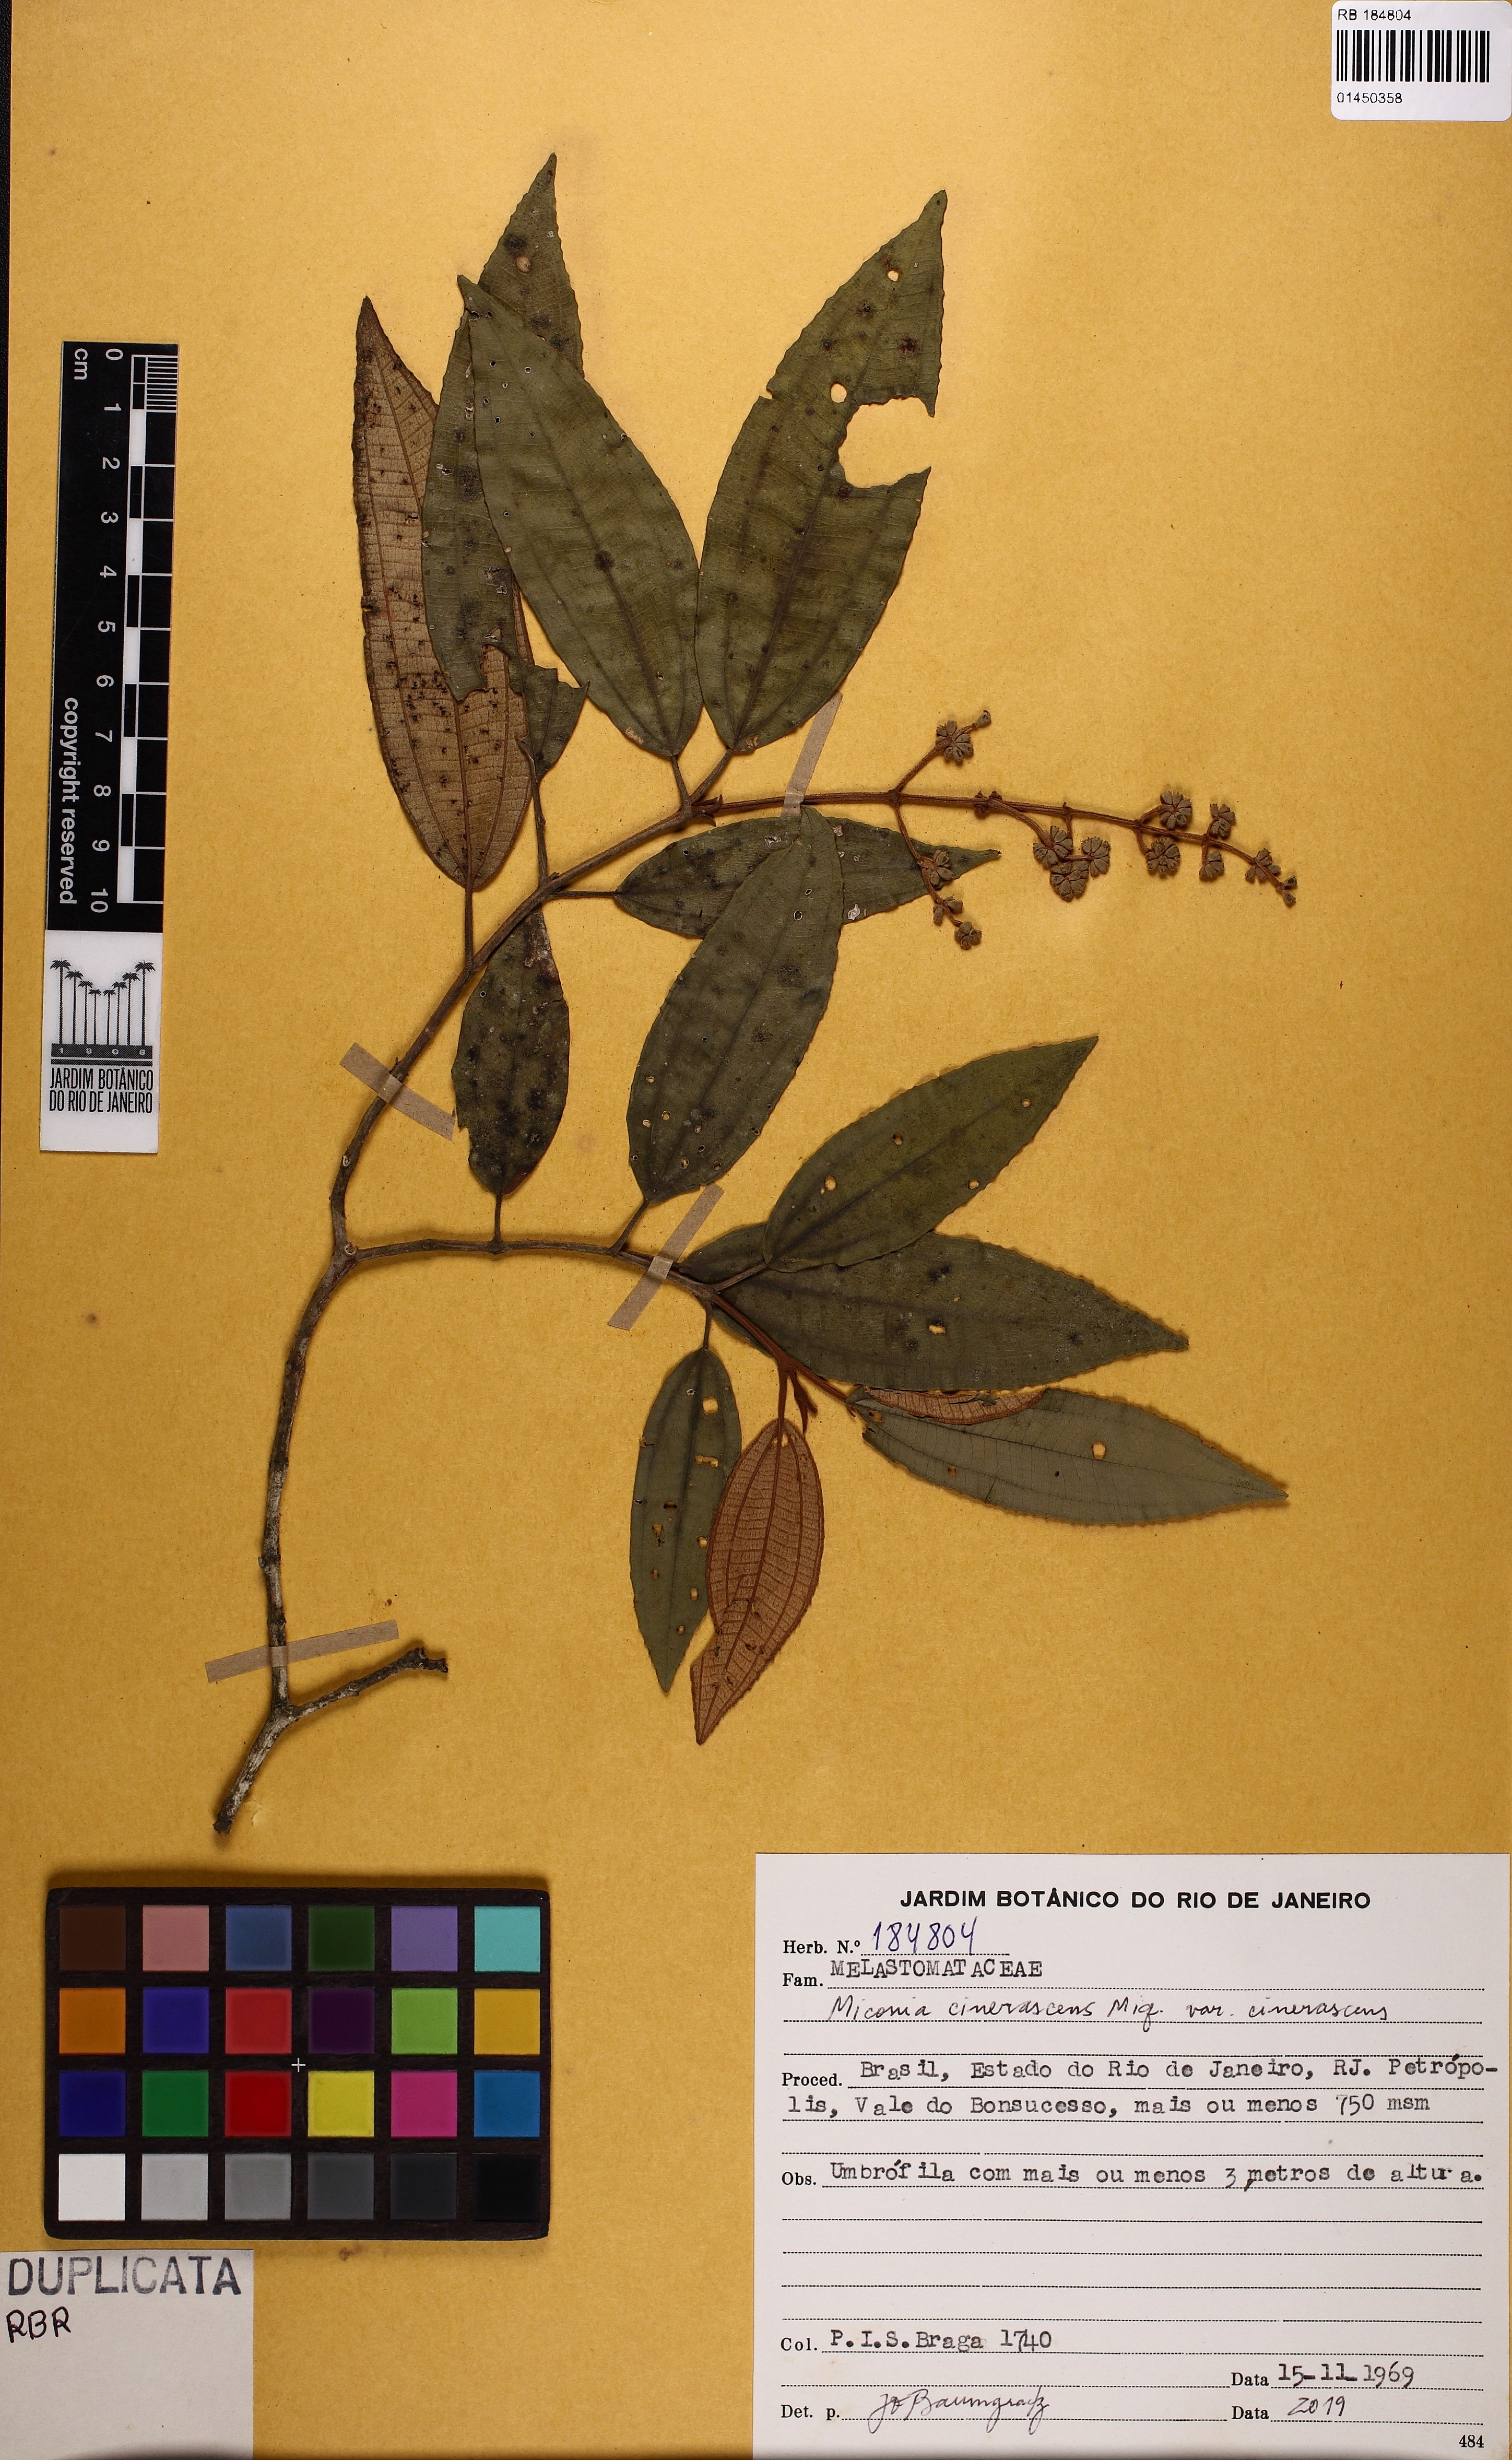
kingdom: Plantae
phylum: Tracheophyta
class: Magnoliopsida
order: Myrtales
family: Melastomataceae
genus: Miconia
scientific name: Miconia cinerascens
